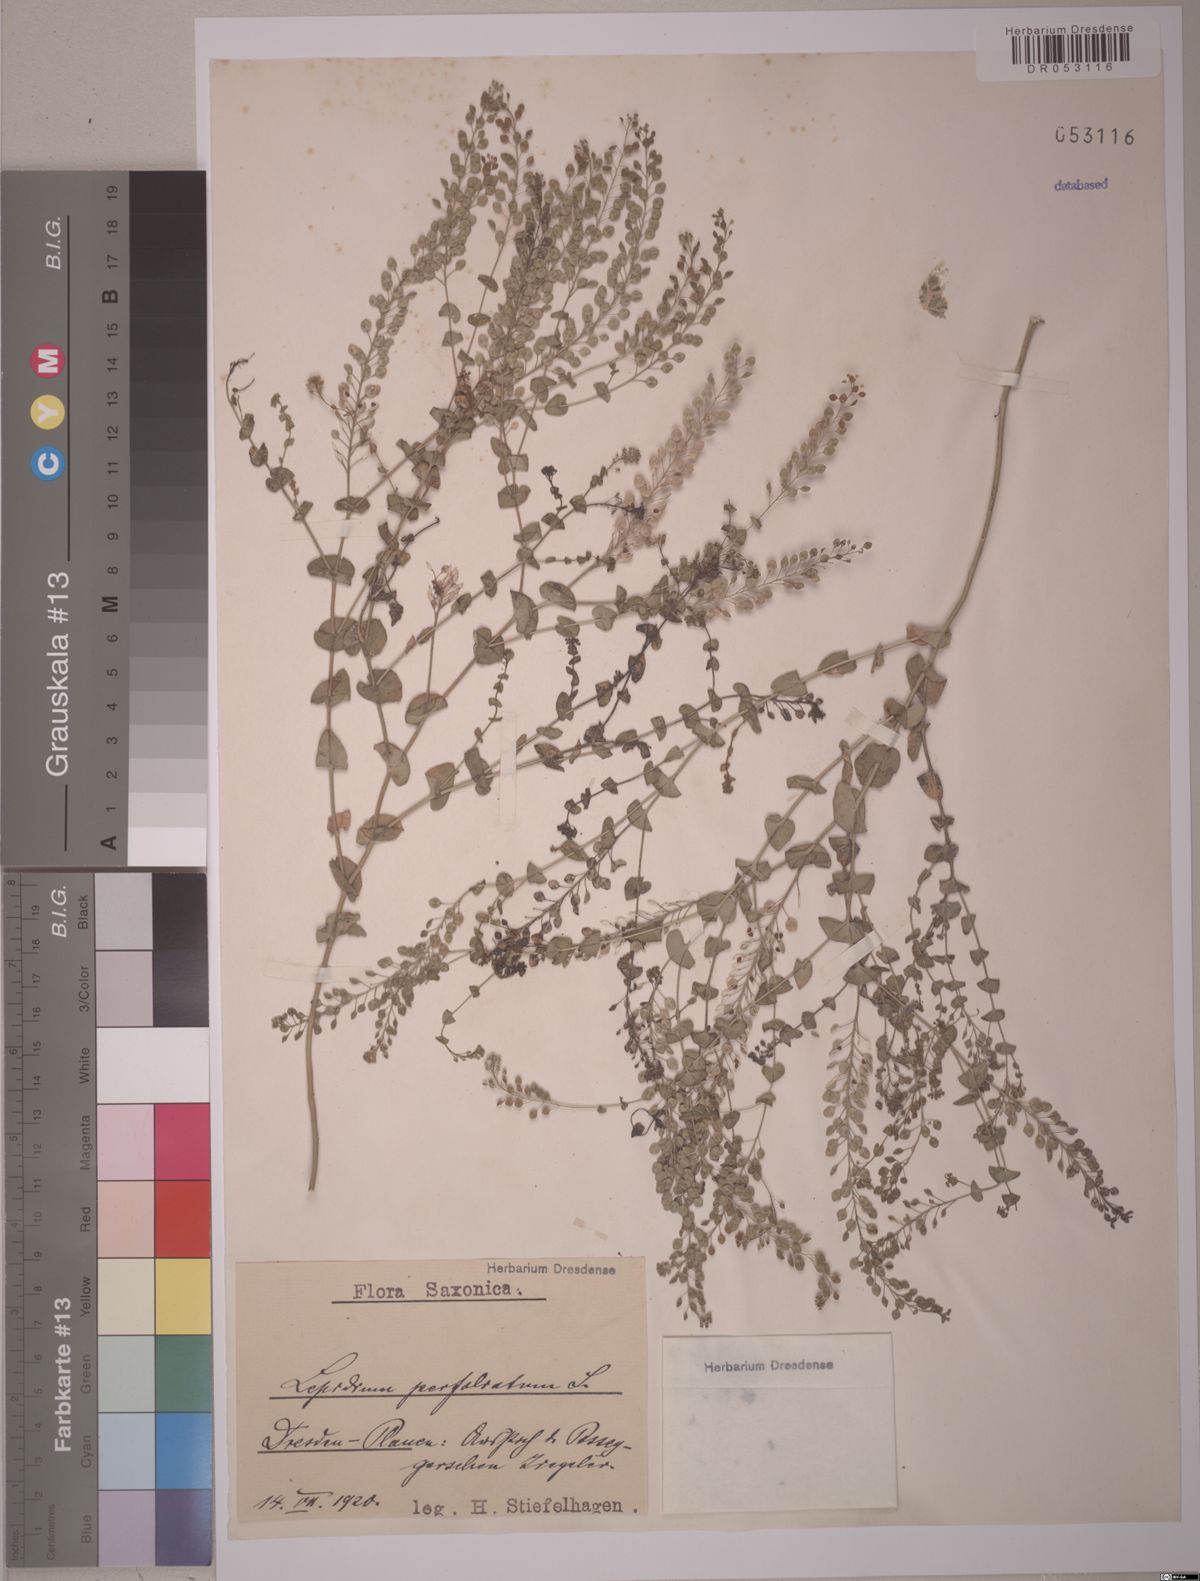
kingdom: Plantae
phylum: Tracheophyta
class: Magnoliopsida
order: Brassicales
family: Brassicaceae
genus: Lepidium
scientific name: Lepidium perfoliatum
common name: Perfoliate pepperwort
